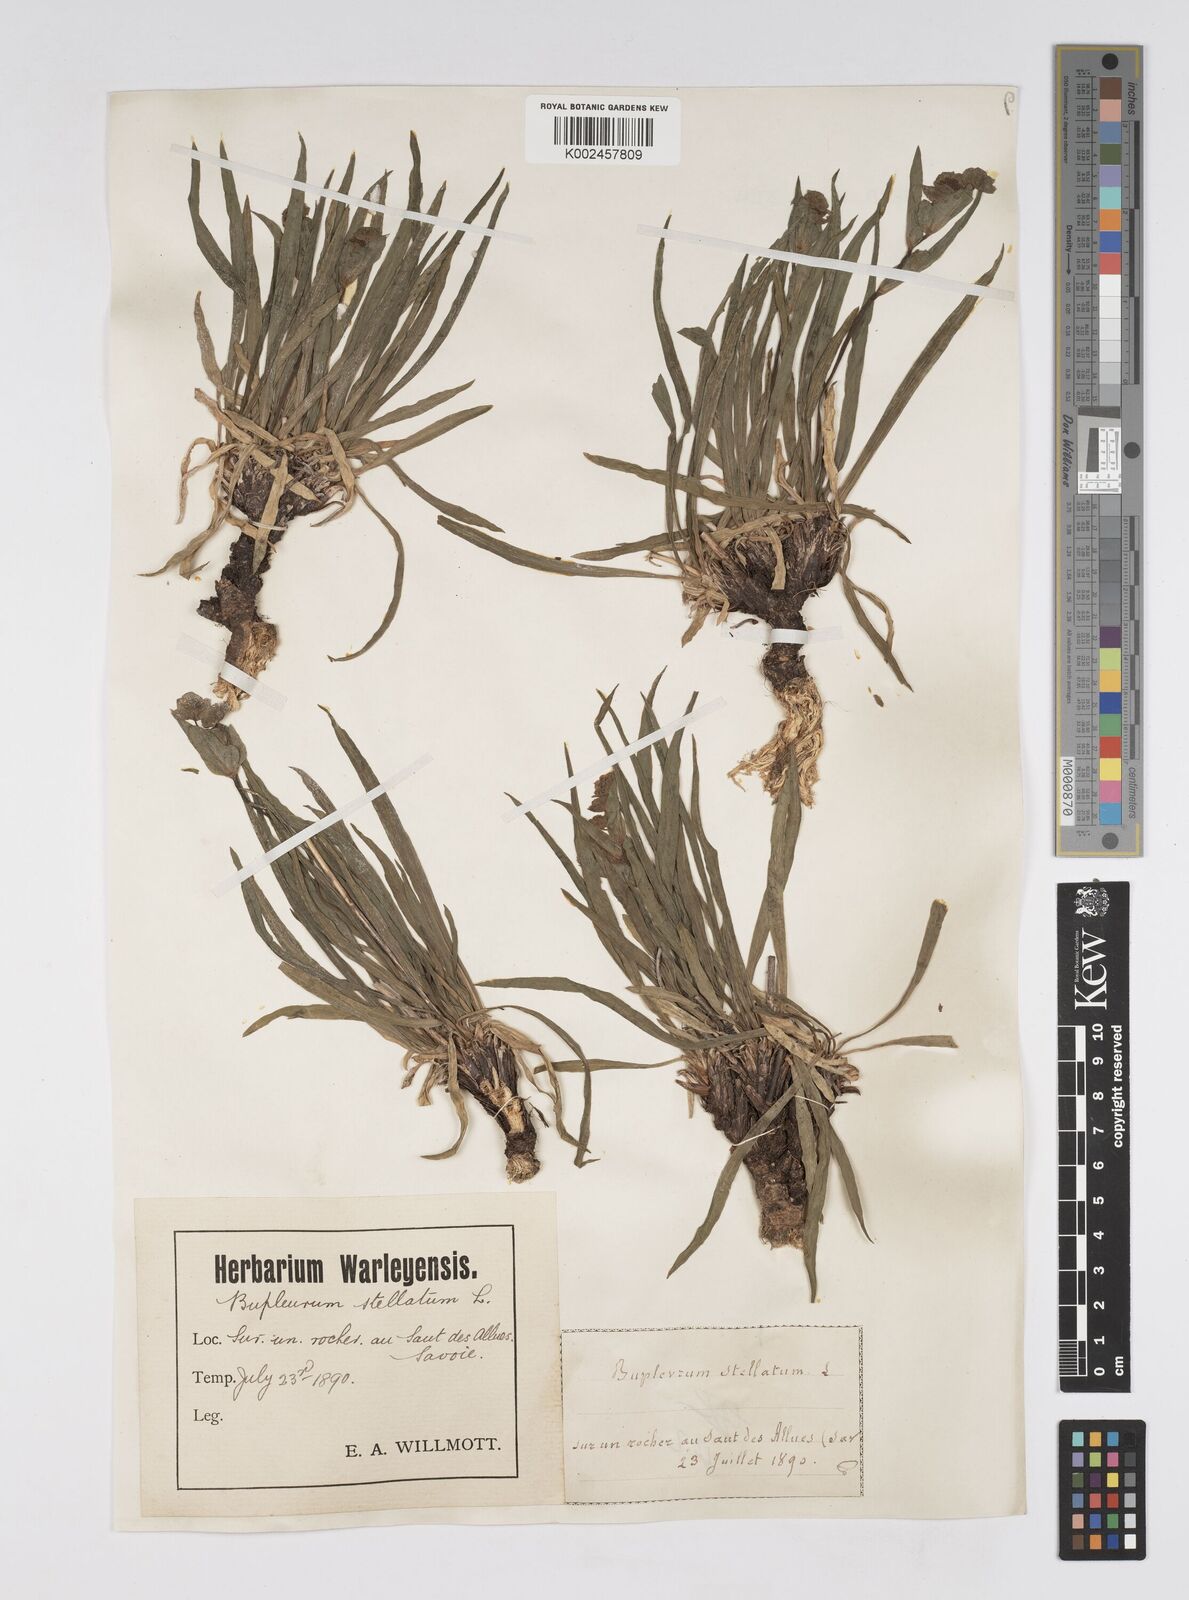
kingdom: Plantae
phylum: Tracheophyta
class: Magnoliopsida
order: Apiales
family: Apiaceae
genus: Bupleurum
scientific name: Bupleurum stellatum
